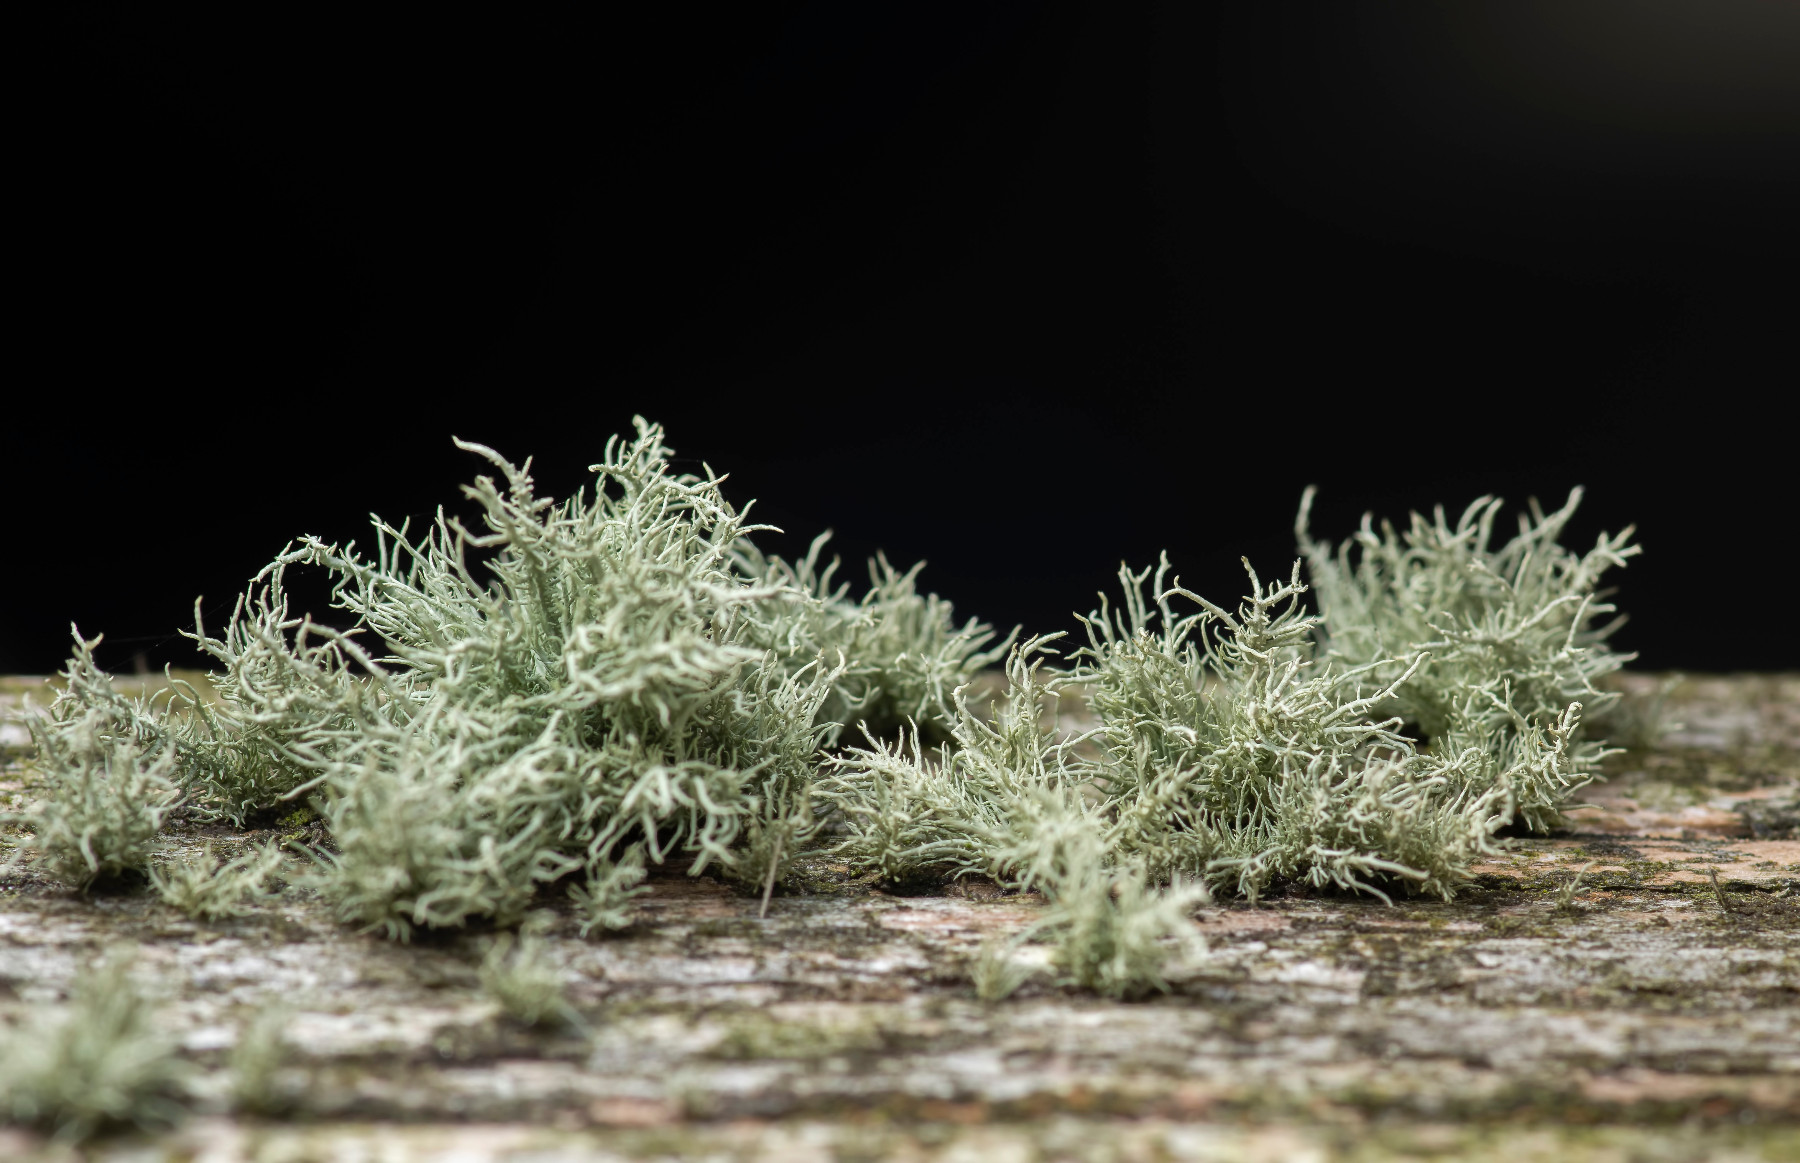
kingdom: Fungi
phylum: Ascomycota
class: Lecanoromycetes
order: Lecanorales
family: Parmeliaceae
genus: Usnea
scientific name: Usnea hirta
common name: liden skæglav
